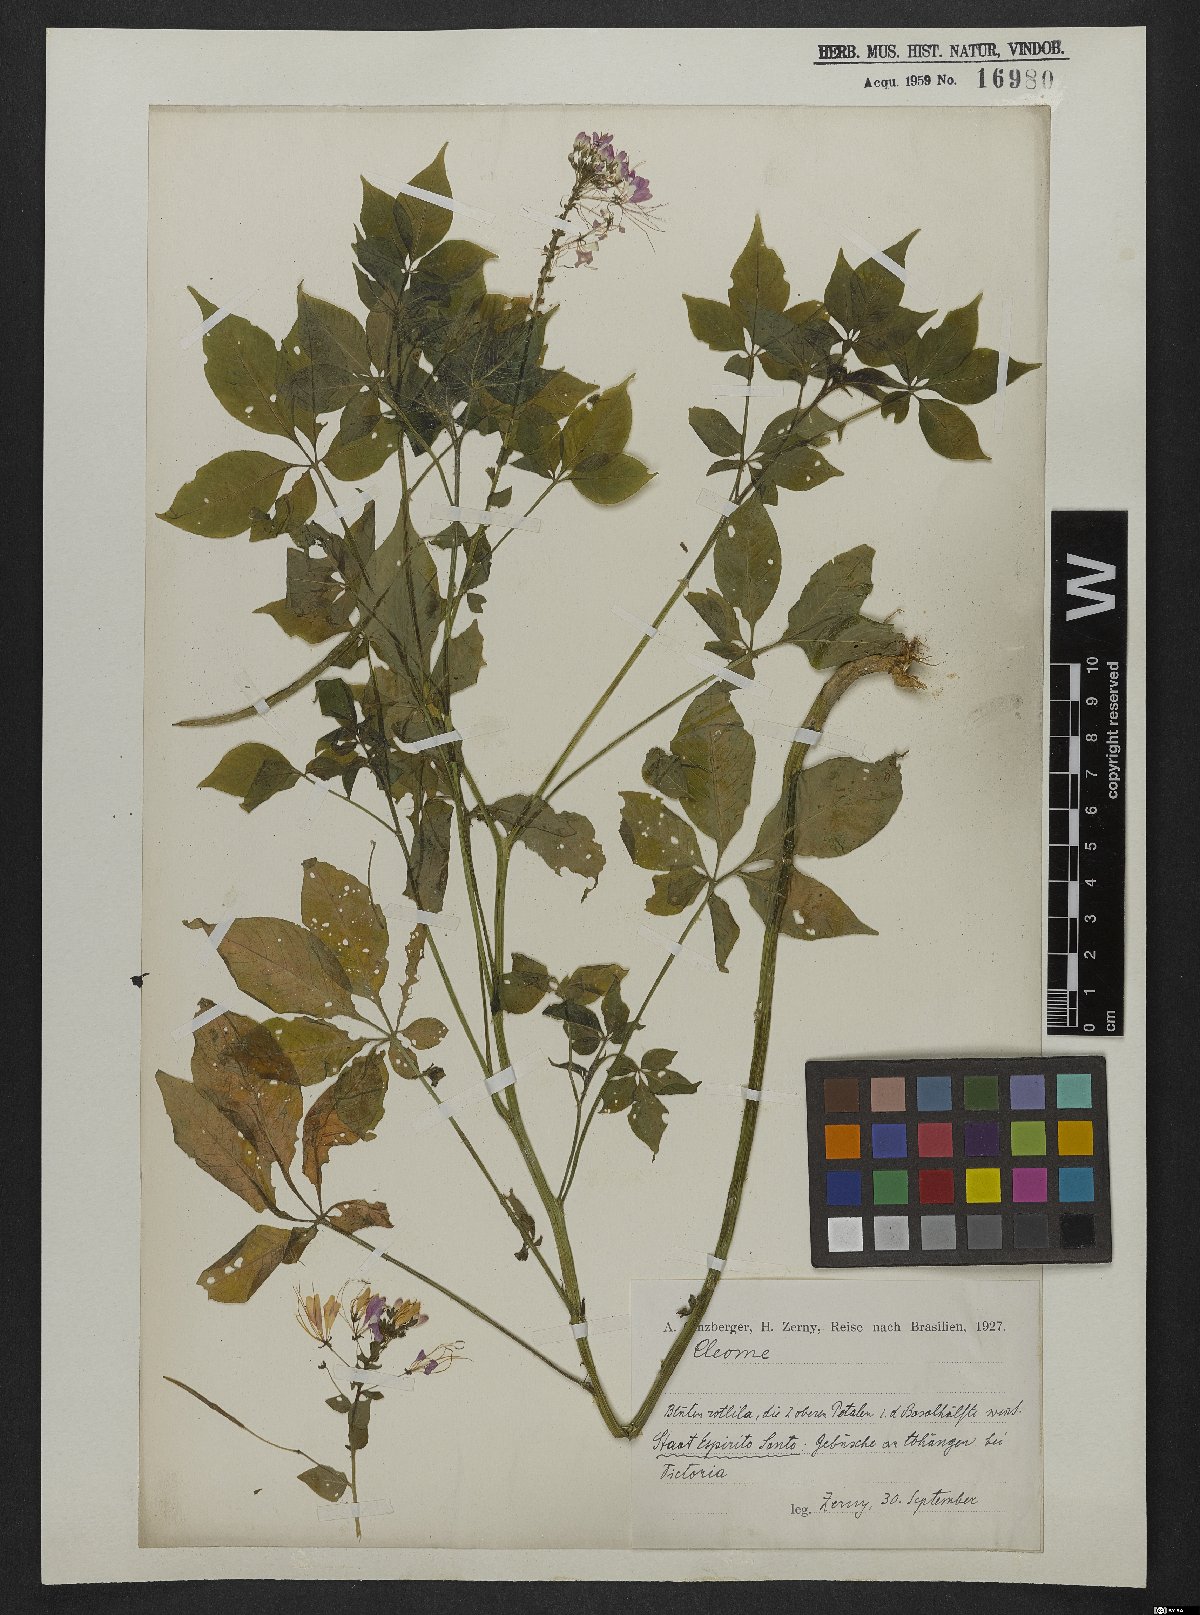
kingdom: Plantae
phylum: Tracheophyta
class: Magnoliopsida
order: Brassicales
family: Cleomaceae
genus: Cleome
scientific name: Cleome
